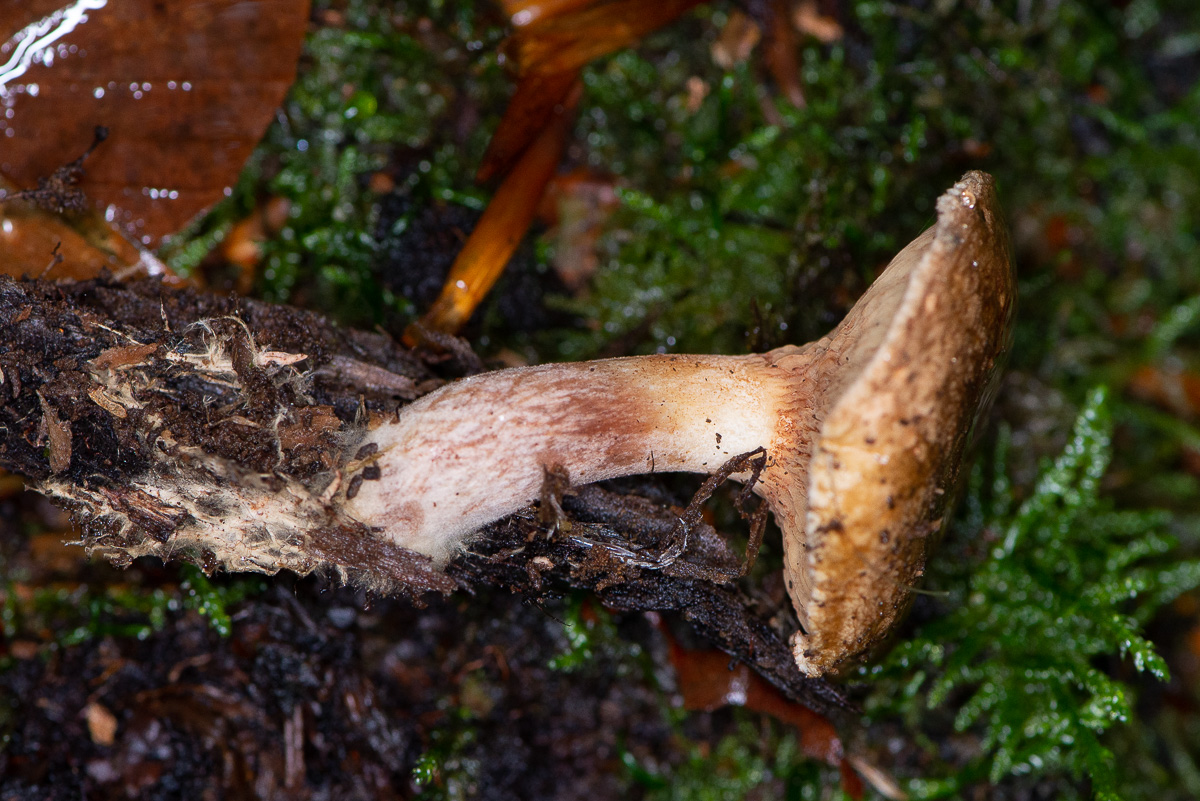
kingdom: Fungi
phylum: Basidiomycota
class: Agaricomycetes
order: Boletales
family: Paxillaceae
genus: Paxillus
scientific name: Paxillus involutus
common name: almindelig netbladhat
